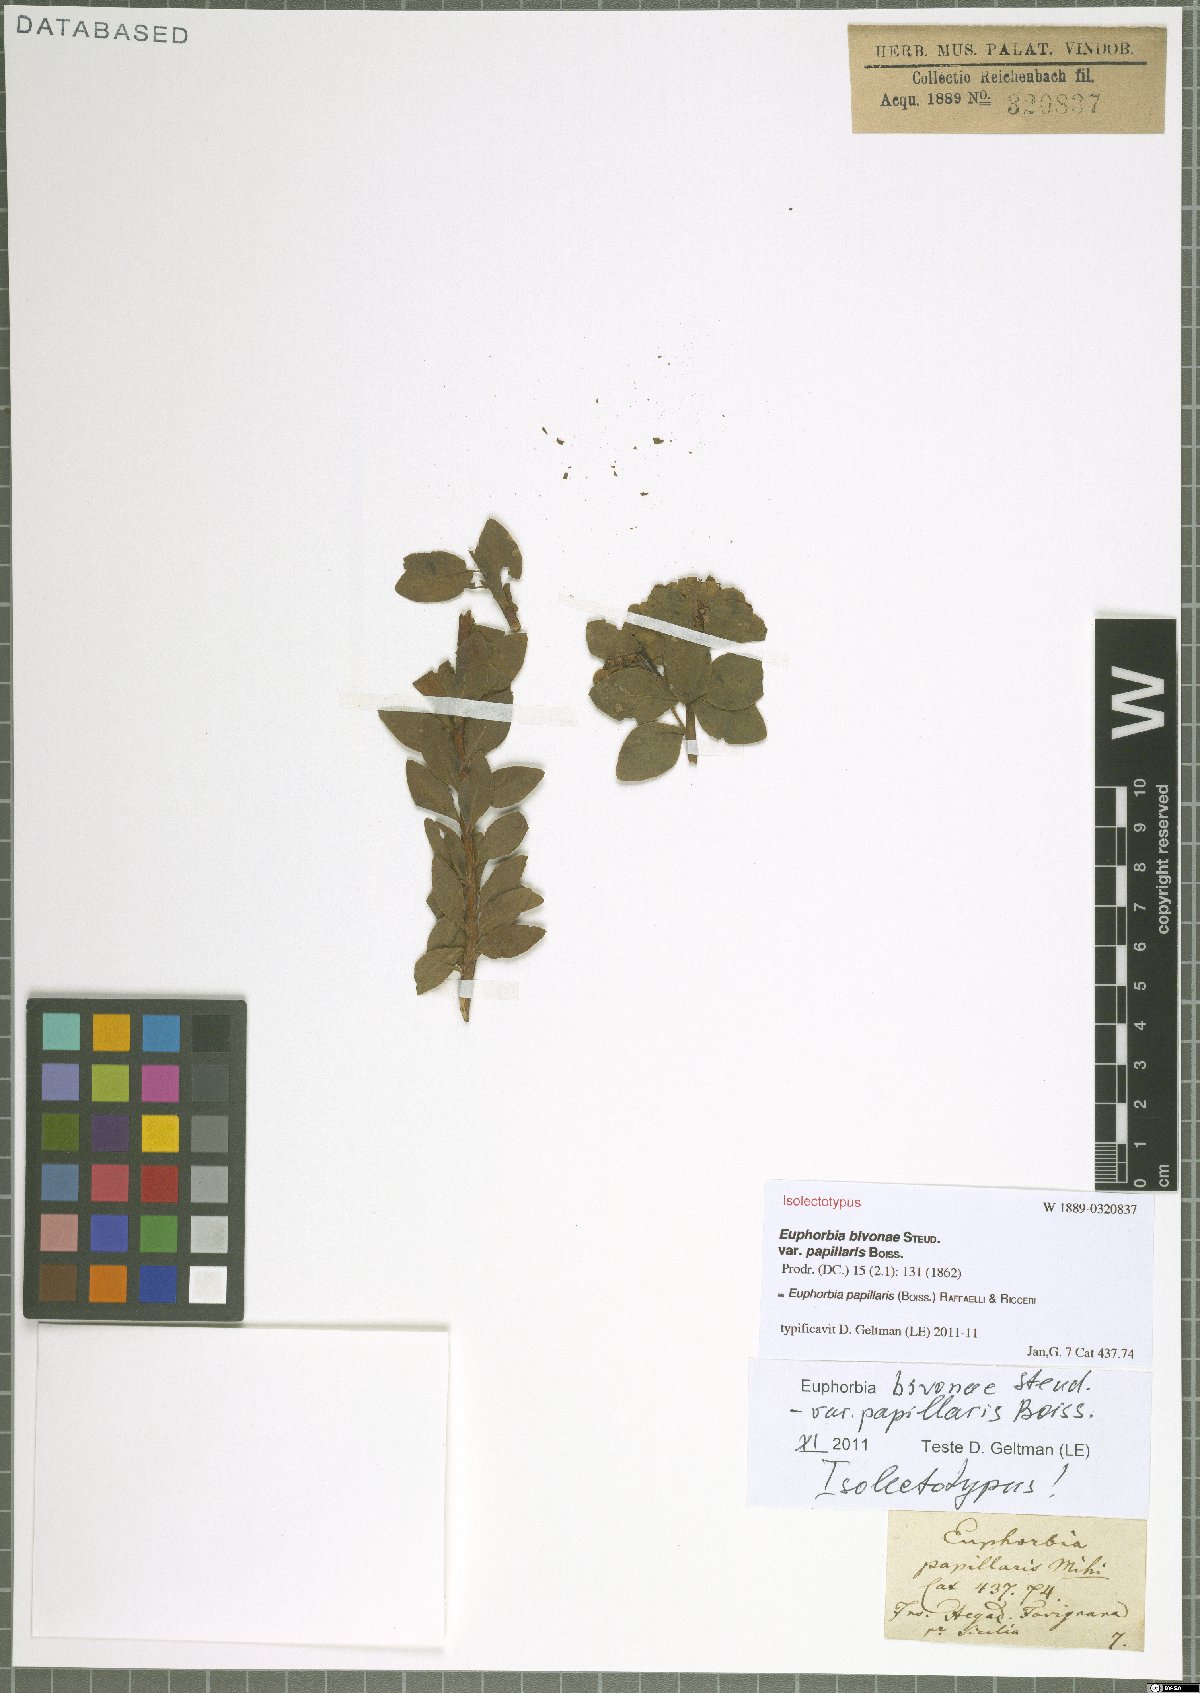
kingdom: Plantae
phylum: Tracheophyta
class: Magnoliopsida
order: Malpighiales
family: Euphorbiaceae
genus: Euphorbia
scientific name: Euphorbia papillaris
